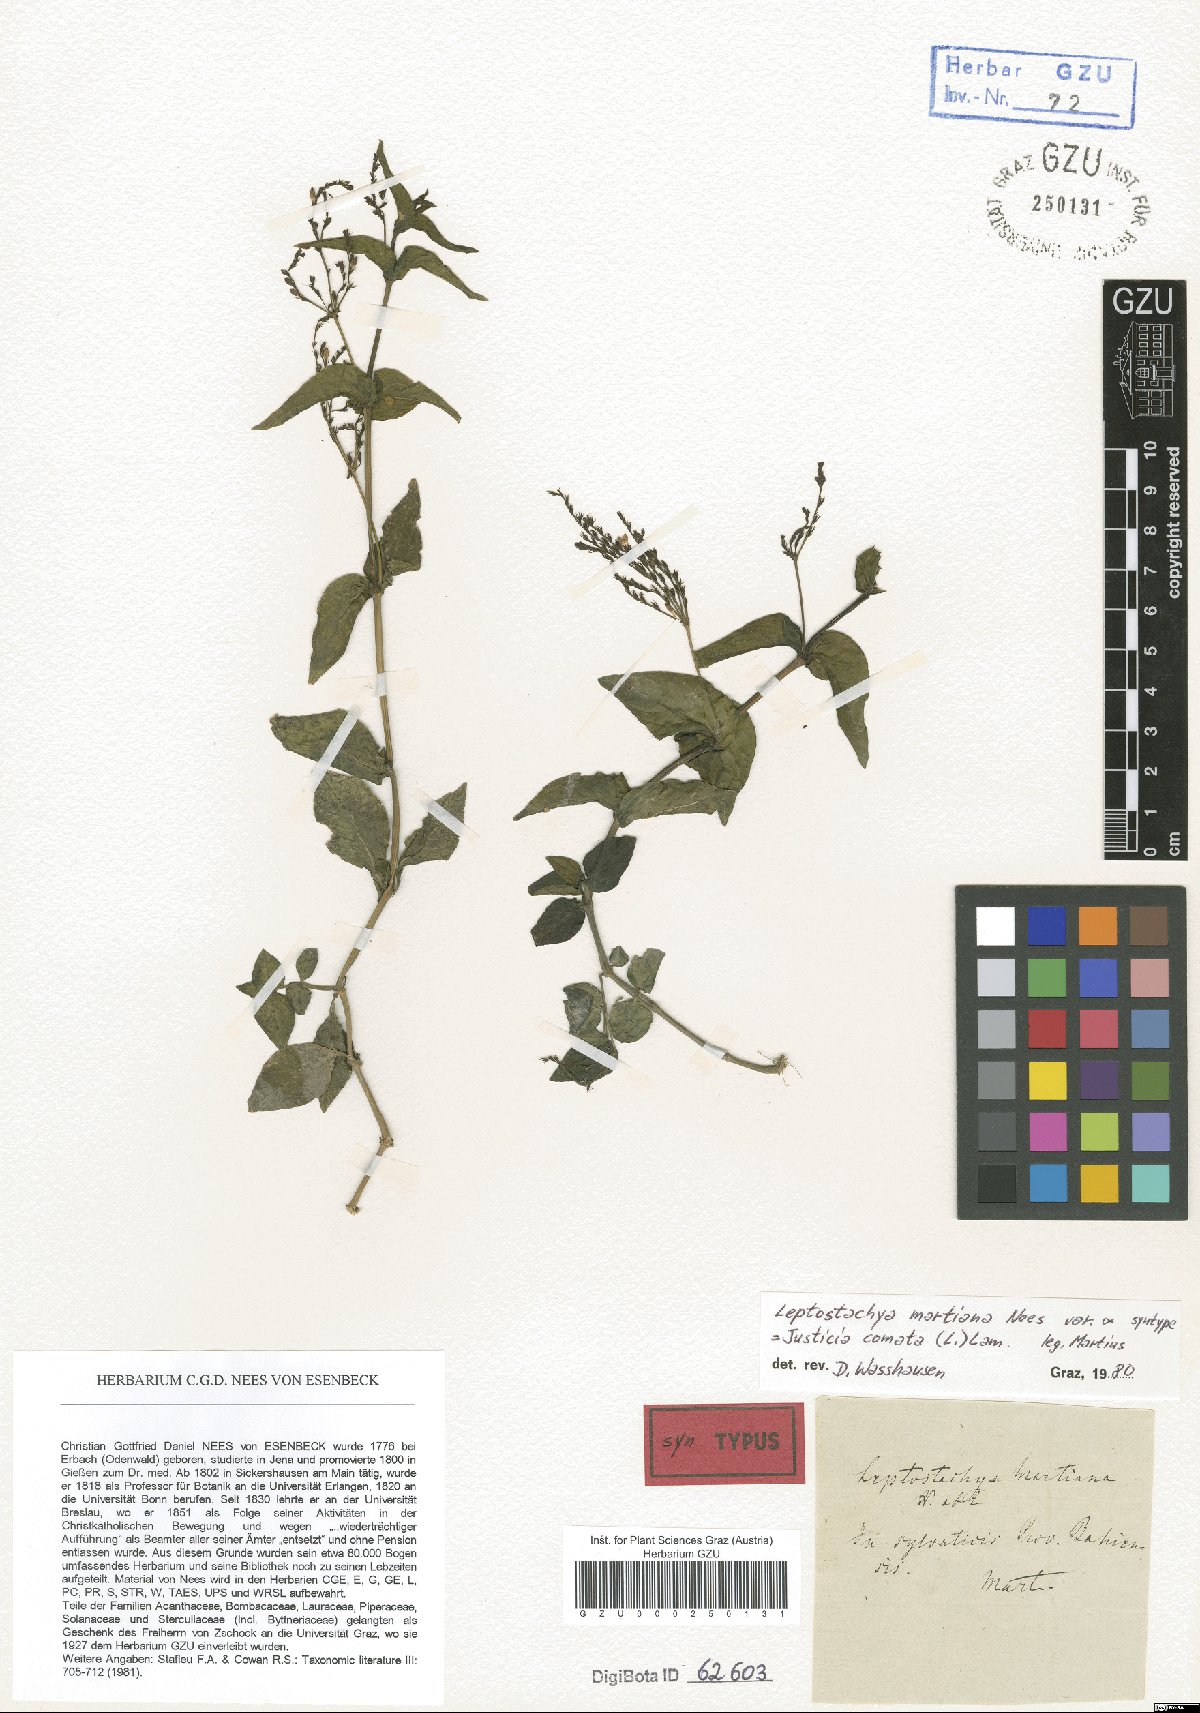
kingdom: Plantae
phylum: Tracheophyta
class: Magnoliopsida
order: Lamiales
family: Acanthaceae
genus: Dianthera
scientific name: Dianthera comata
